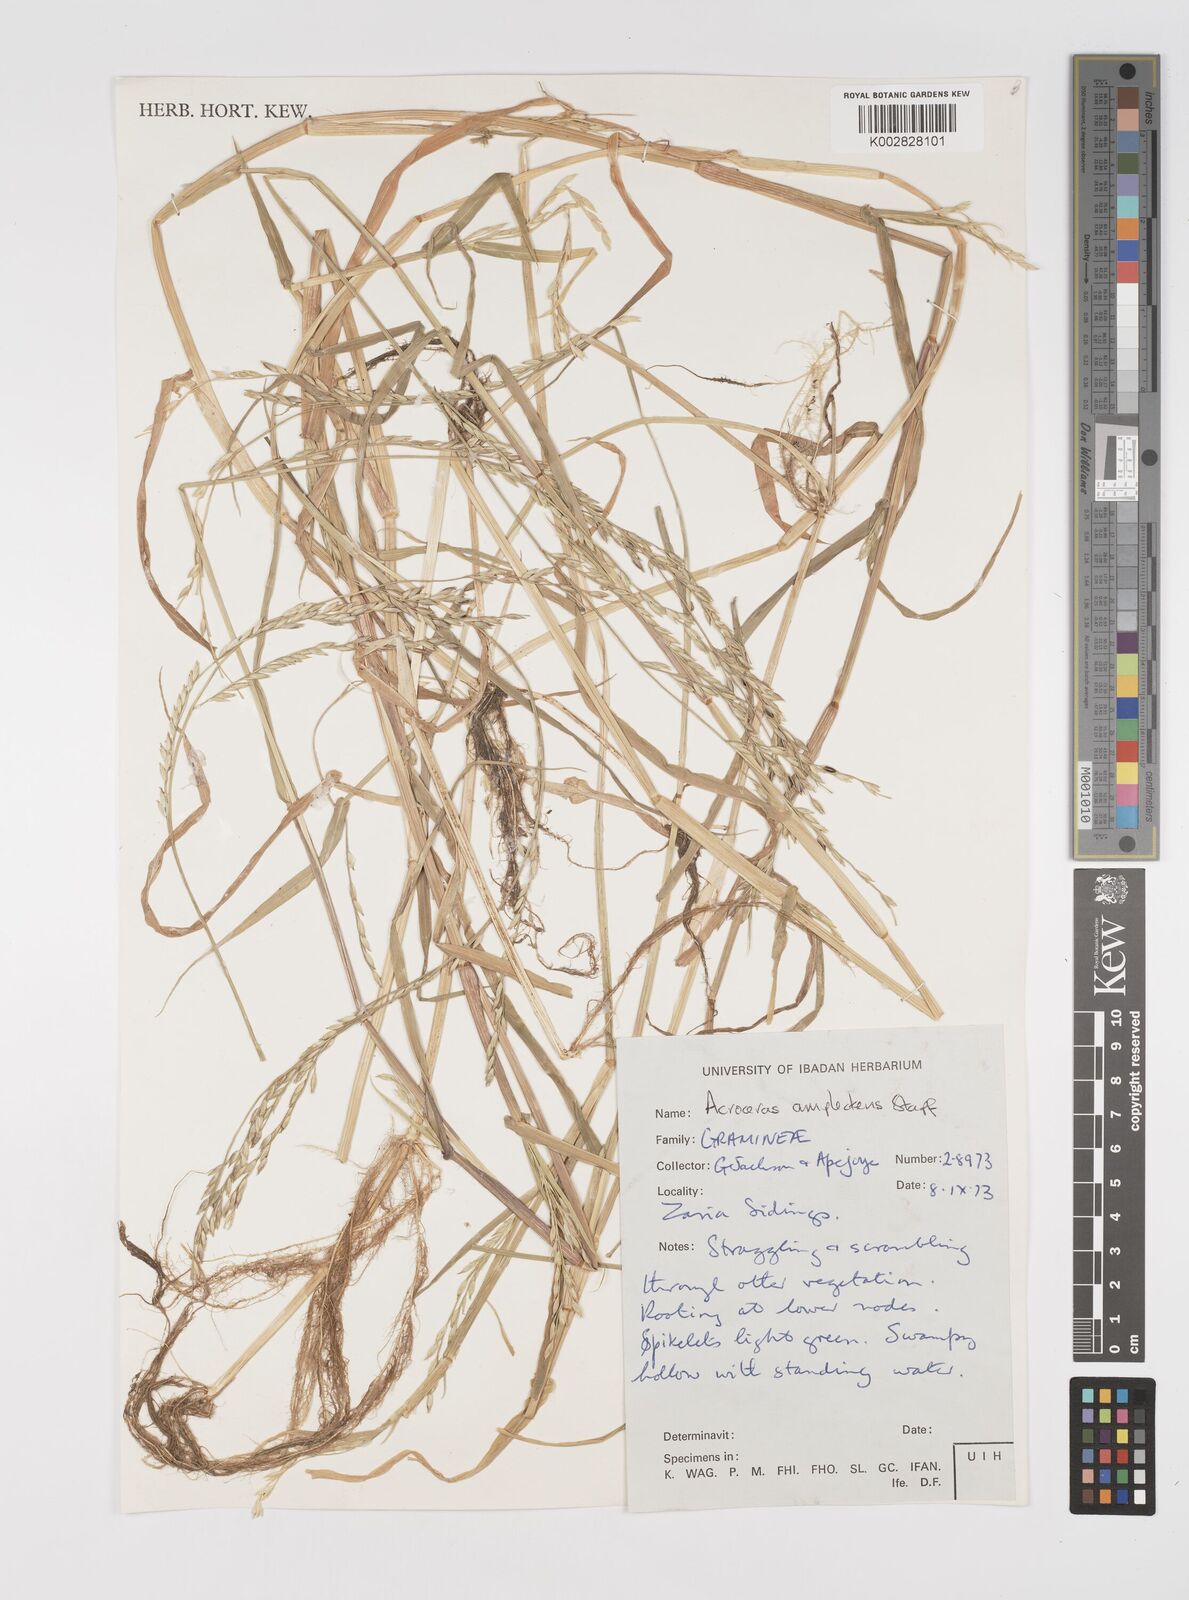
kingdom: Plantae
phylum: Tracheophyta
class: Liliopsida
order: Poales
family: Poaceae
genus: Acroceras
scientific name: Acroceras amplectens
